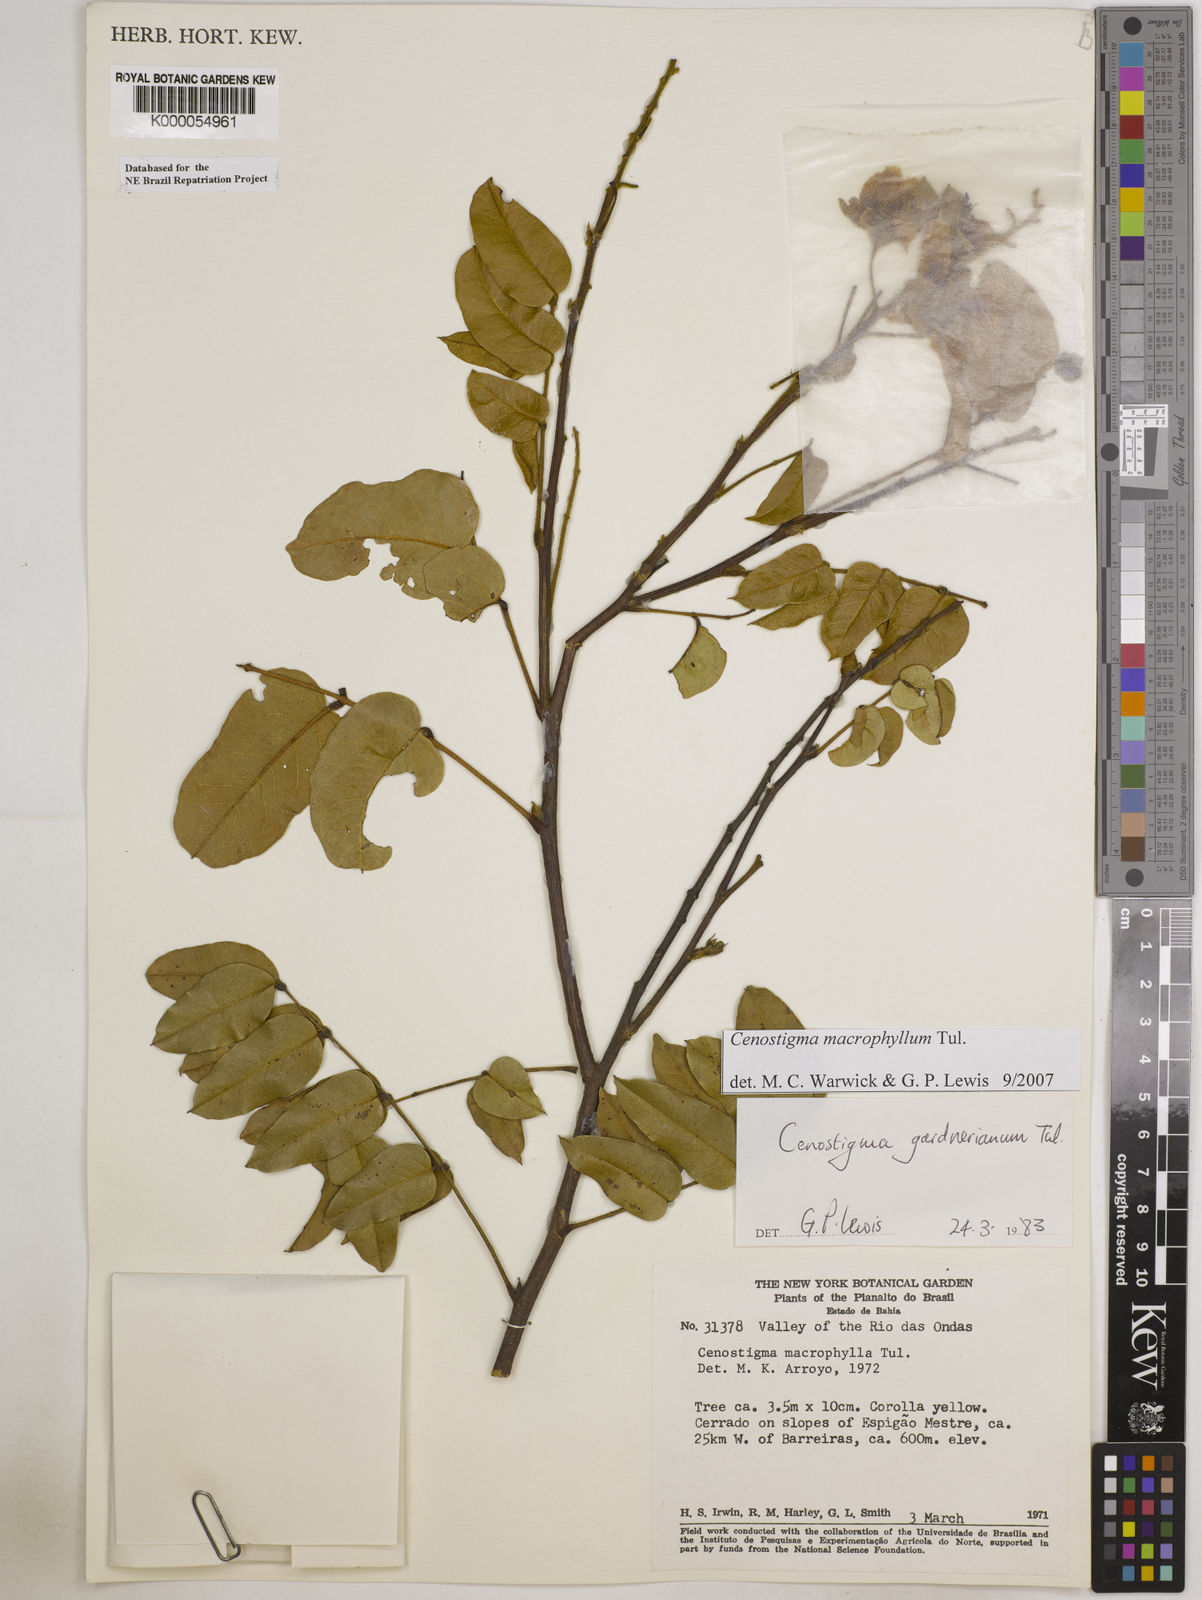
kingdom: Plantae
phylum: Tracheophyta
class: Magnoliopsida
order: Fabales
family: Fabaceae
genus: Cenostigma
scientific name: Cenostigma macrophyllum
